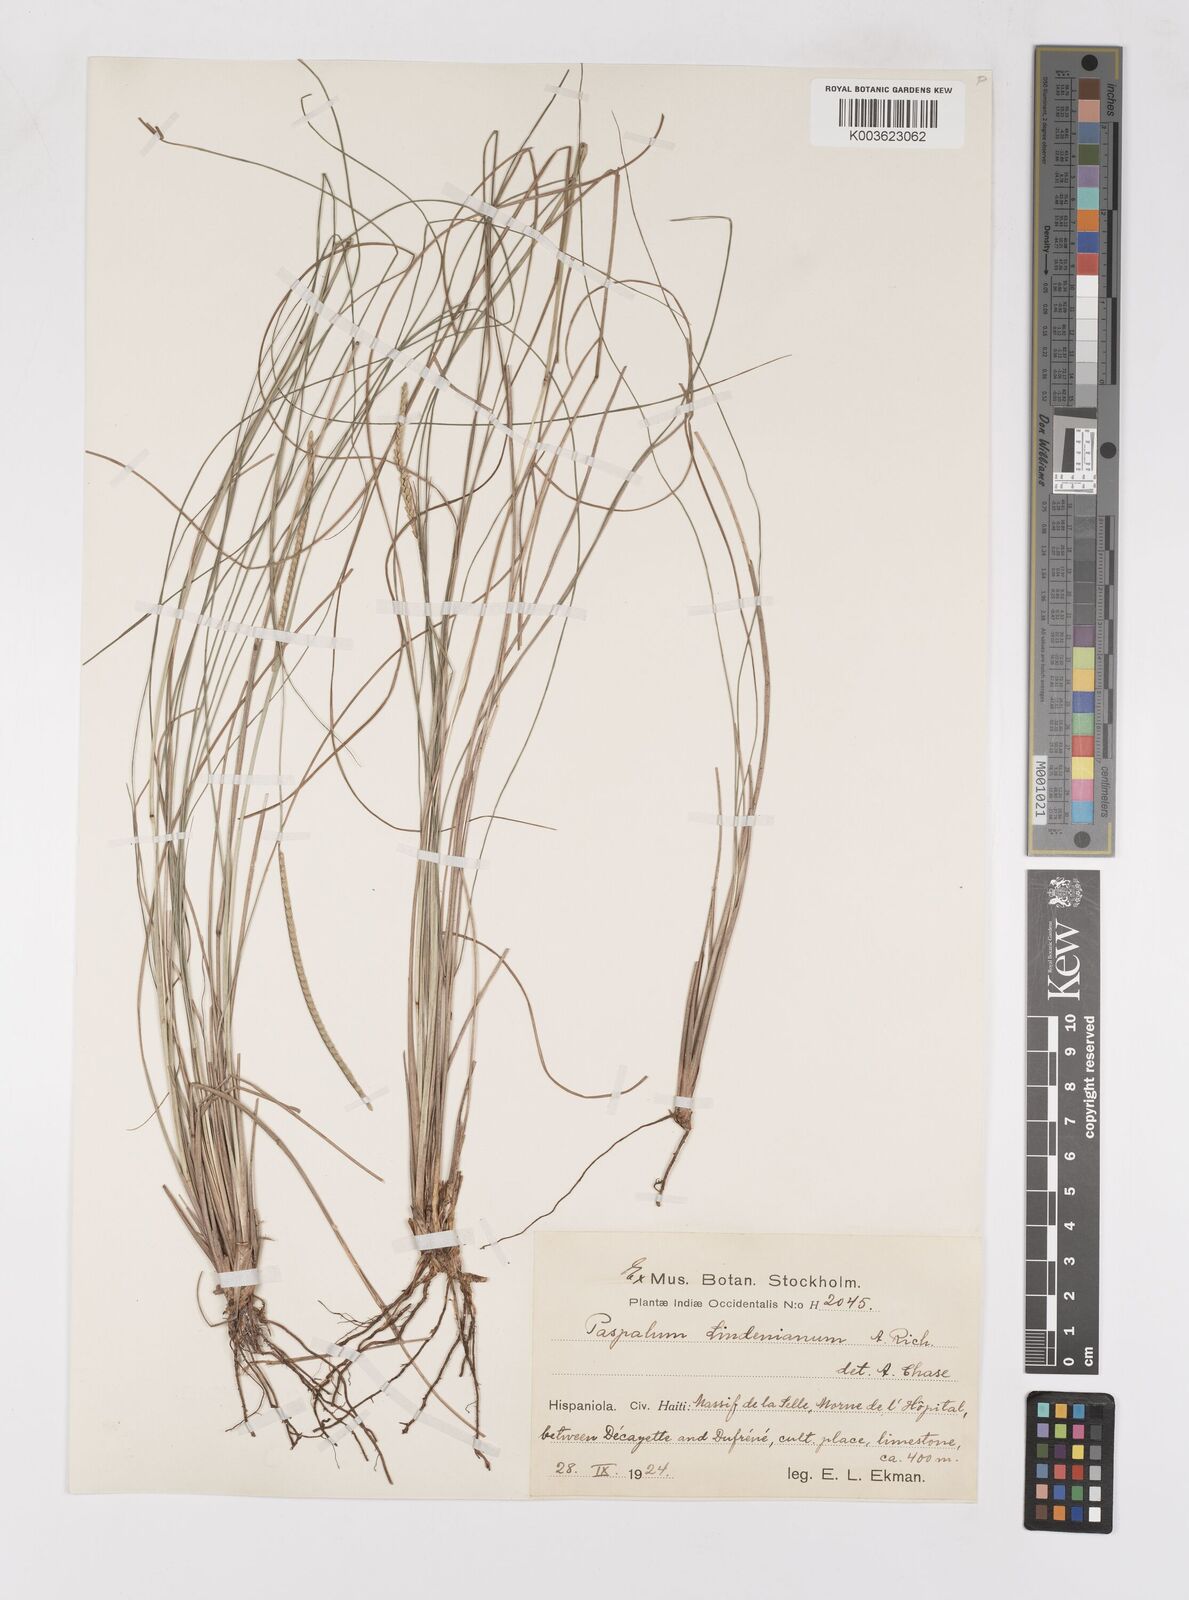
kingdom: Plantae
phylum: Tracheophyta
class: Liliopsida
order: Poales
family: Poaceae
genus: Paspalum
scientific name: Paspalum lindenianum
